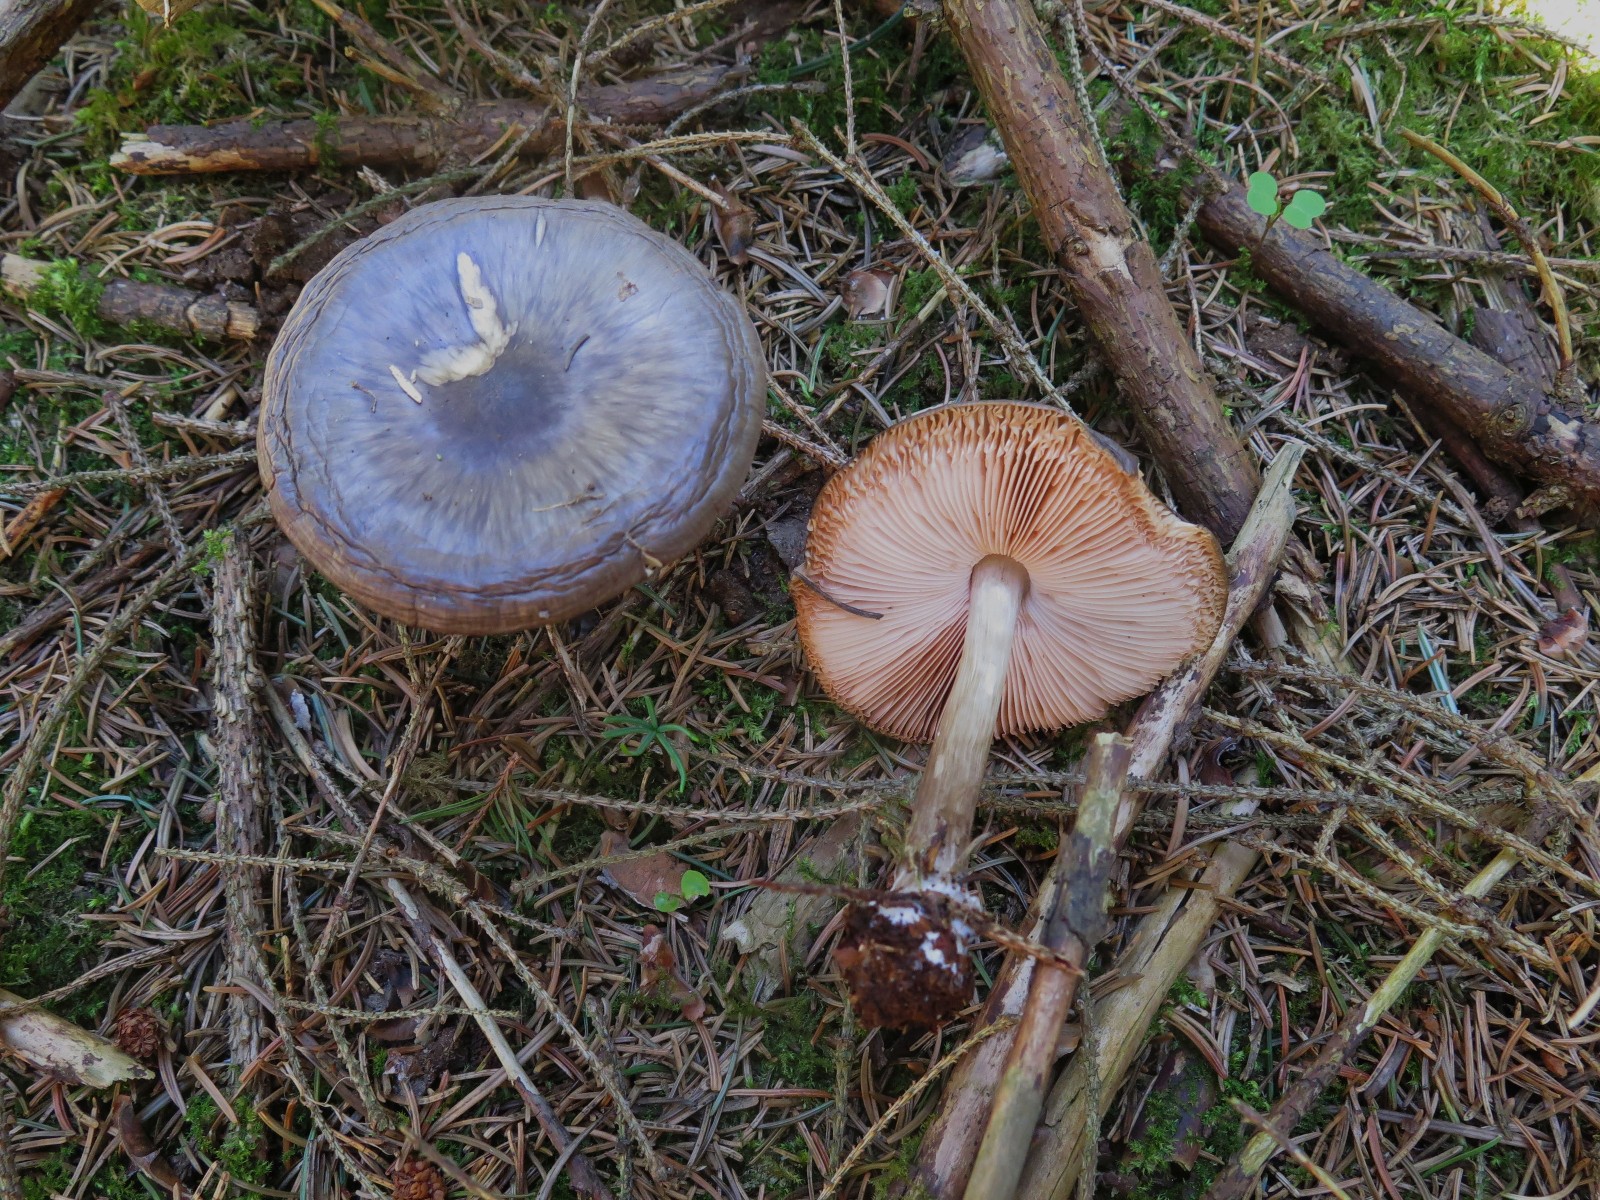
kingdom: Fungi
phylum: Basidiomycota
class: Agaricomycetes
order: Agaricales
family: Pluteaceae
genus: Pluteus
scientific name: Pluteus primus
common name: tidlig skærmhat
